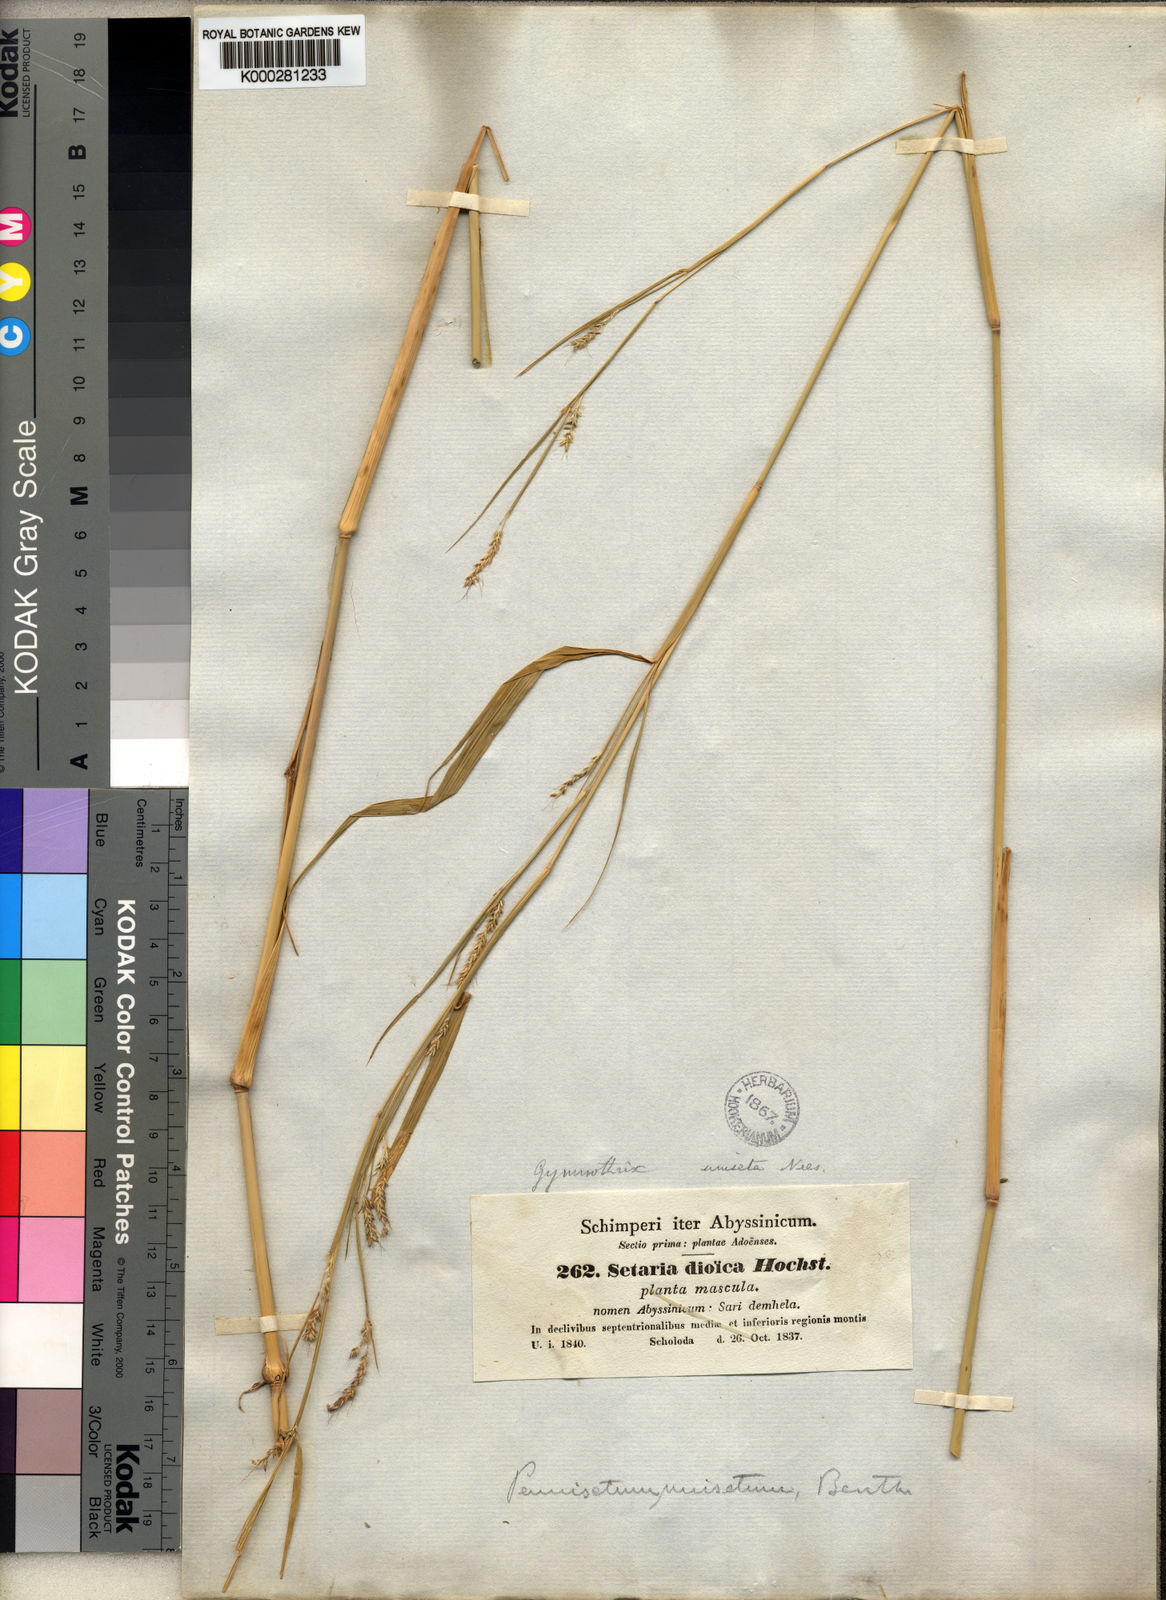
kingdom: Plantae
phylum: Tracheophyta
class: Liliopsida
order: Poales
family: Poaceae
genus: Cenchrus
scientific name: Cenchrus unisetus
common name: Natal grass
